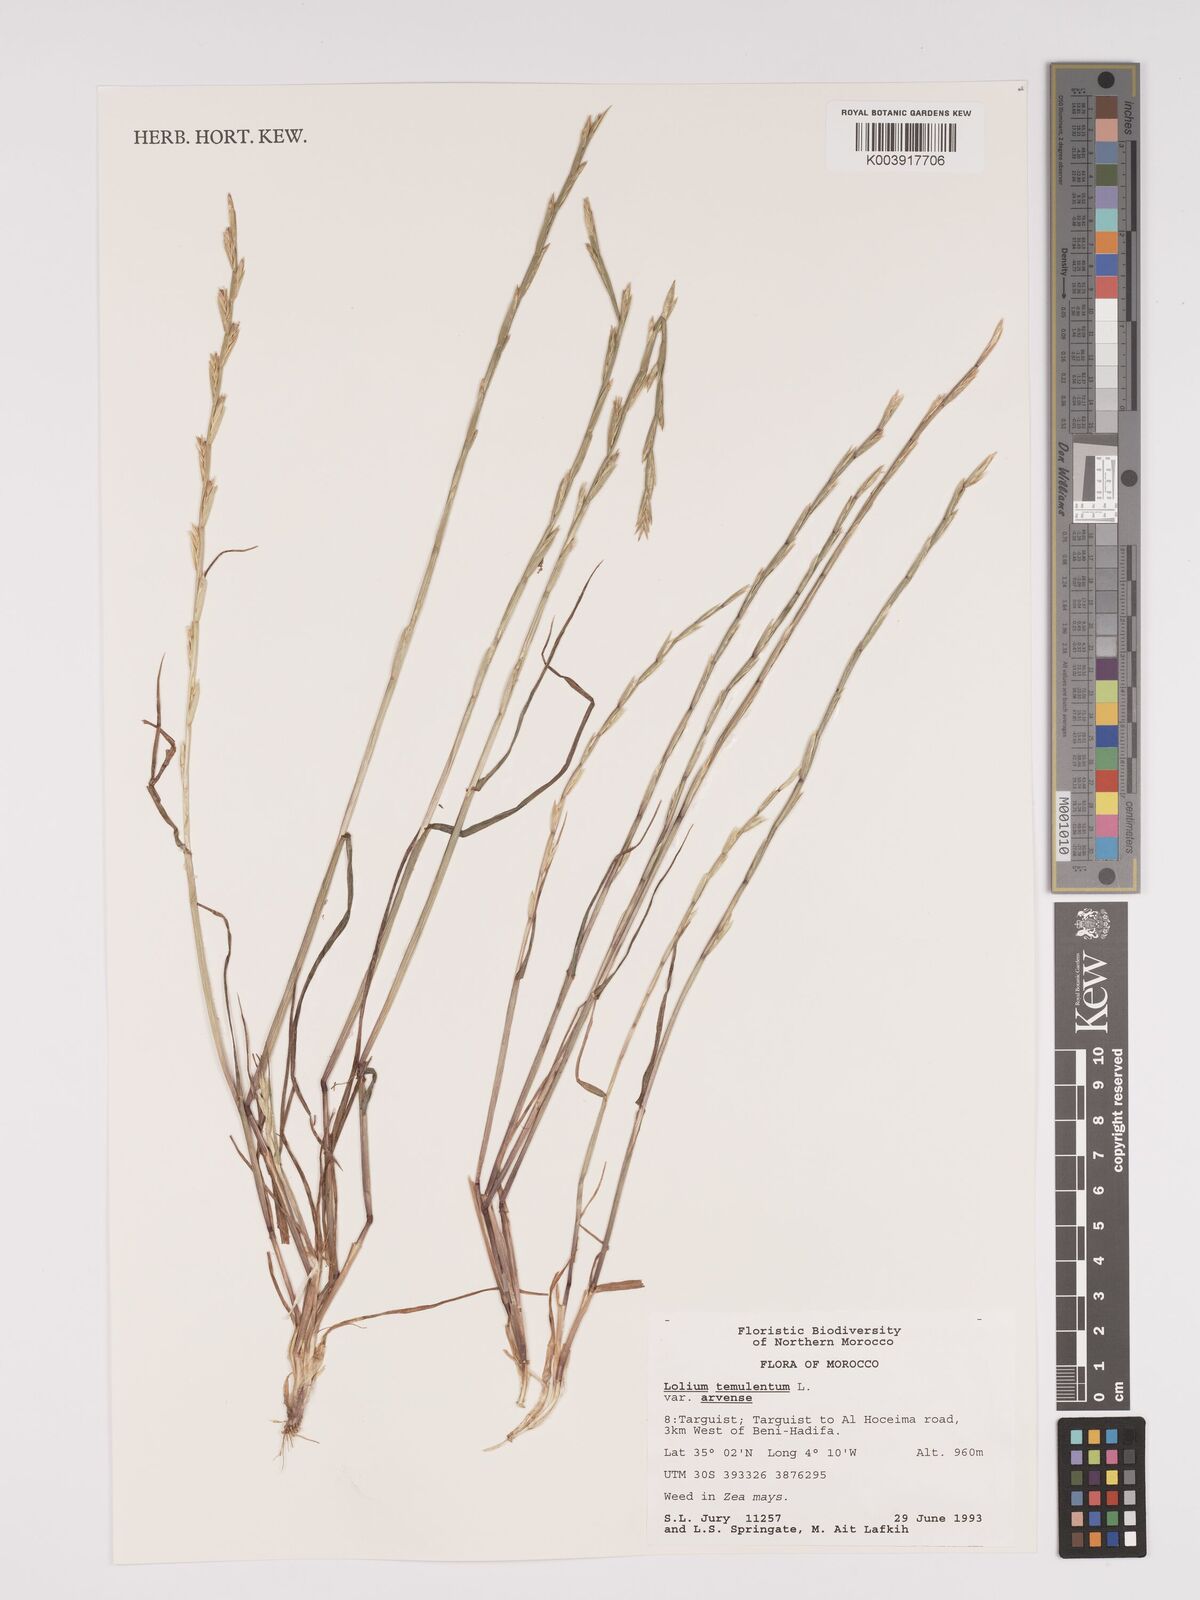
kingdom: Plantae
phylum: Tracheophyta
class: Liliopsida
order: Poales
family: Poaceae
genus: Lolium
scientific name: Lolium temulentum
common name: Darnel
